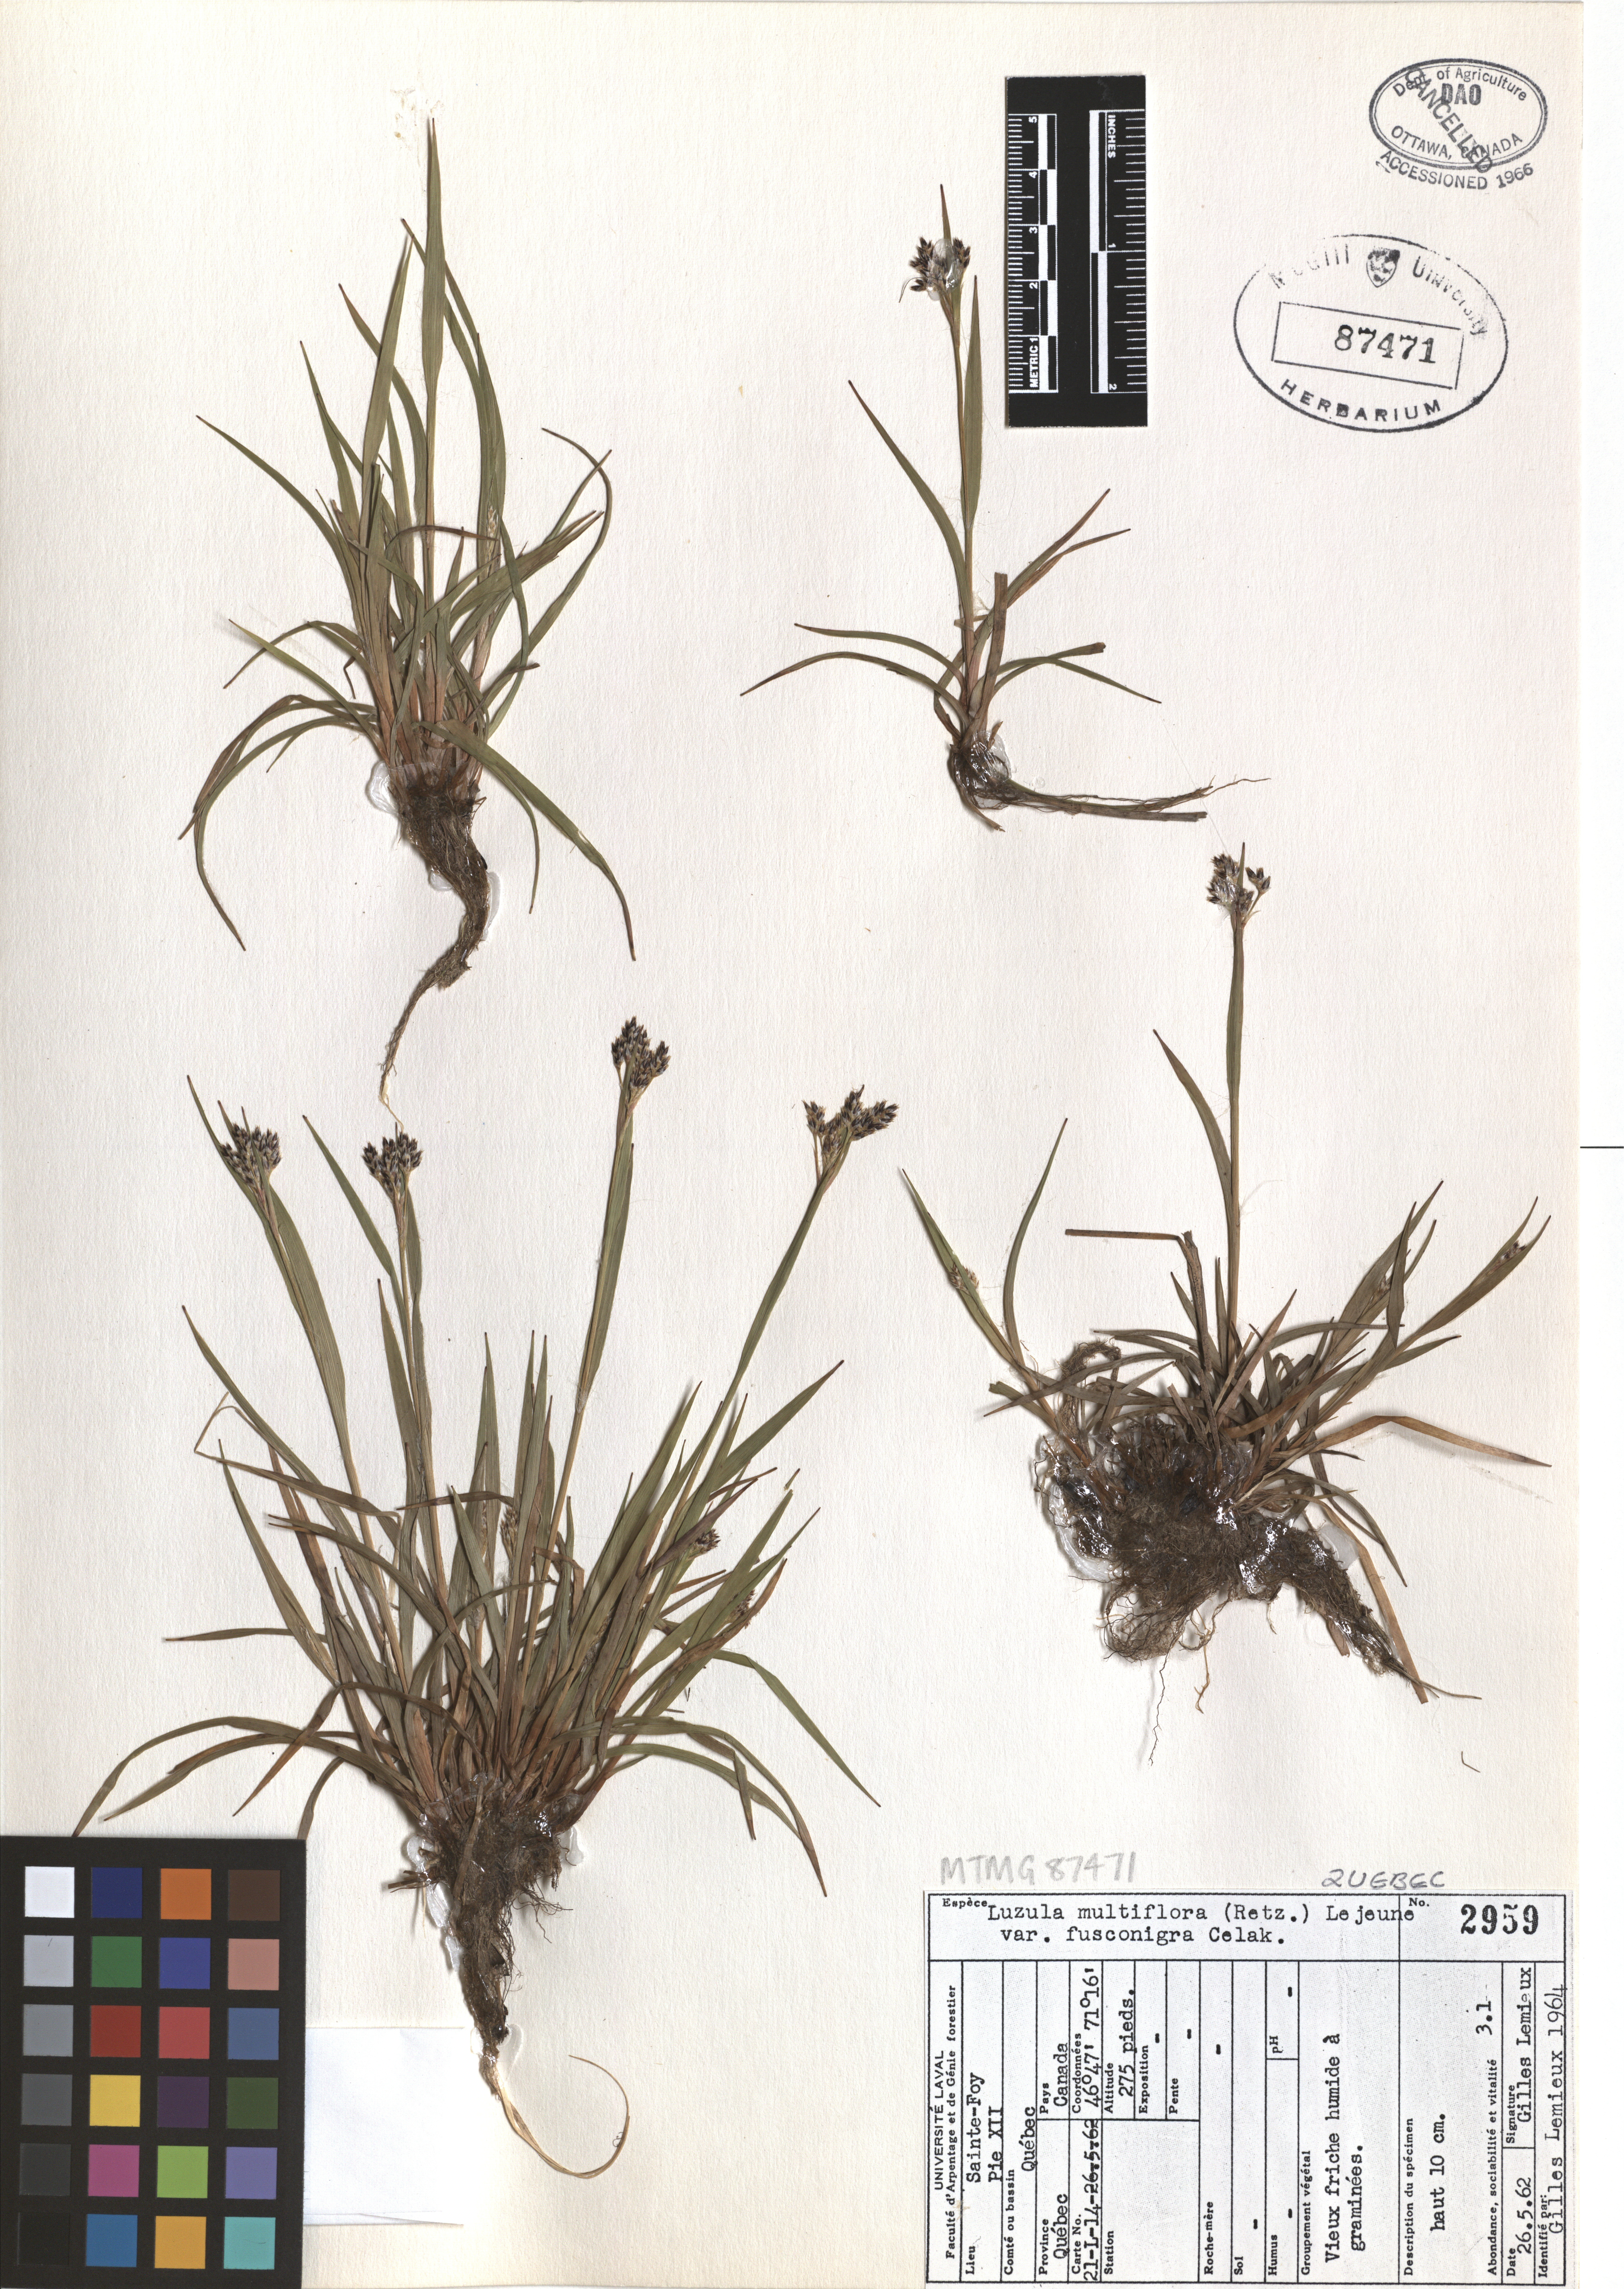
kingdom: Plantae
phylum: Tracheophyta
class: Liliopsida
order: Poales
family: Juncaceae
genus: Luzula
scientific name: Luzula multiflora
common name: Heath wood-rush
